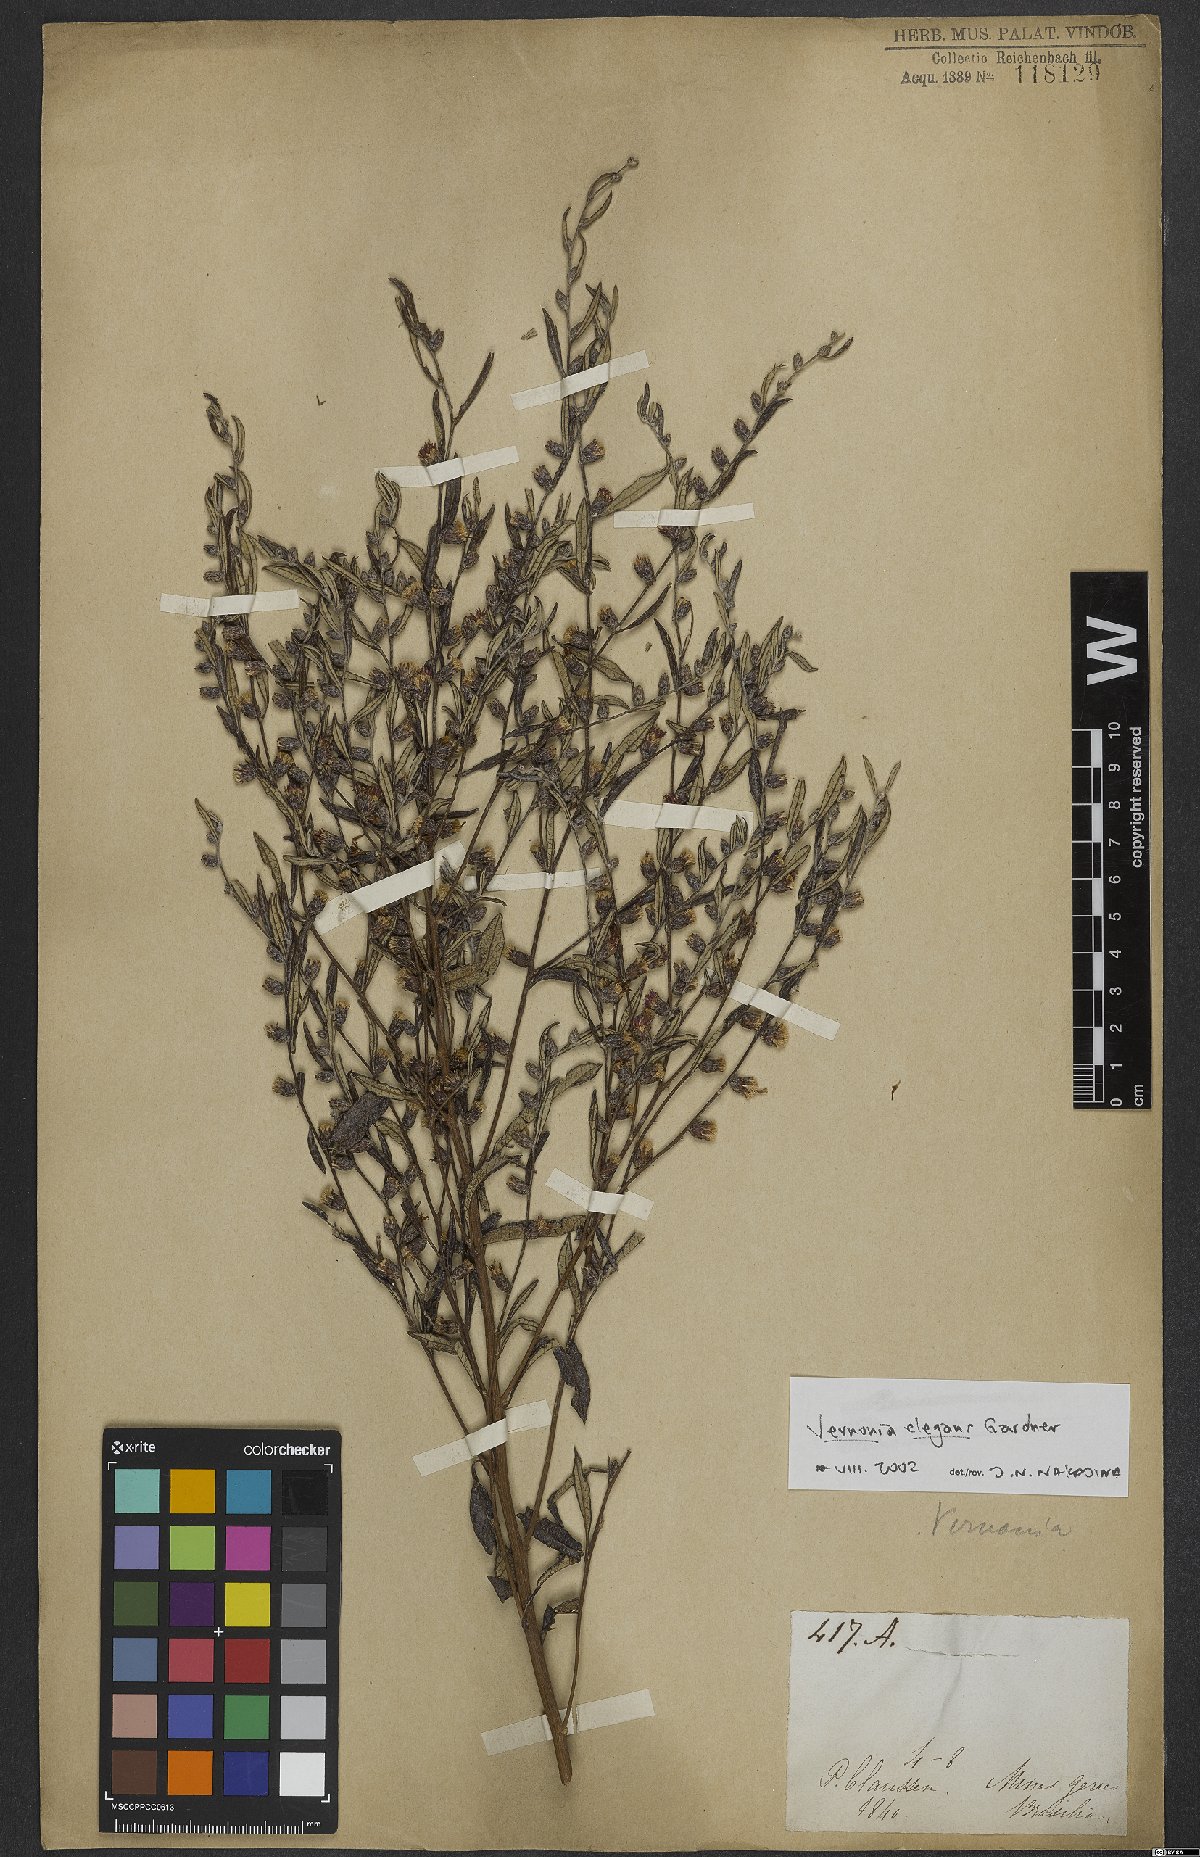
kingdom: Plantae
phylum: Tracheophyta
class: Magnoliopsida
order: Asterales
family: Asteraceae
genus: Lessingianthus
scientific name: Lessingianthus elegans
